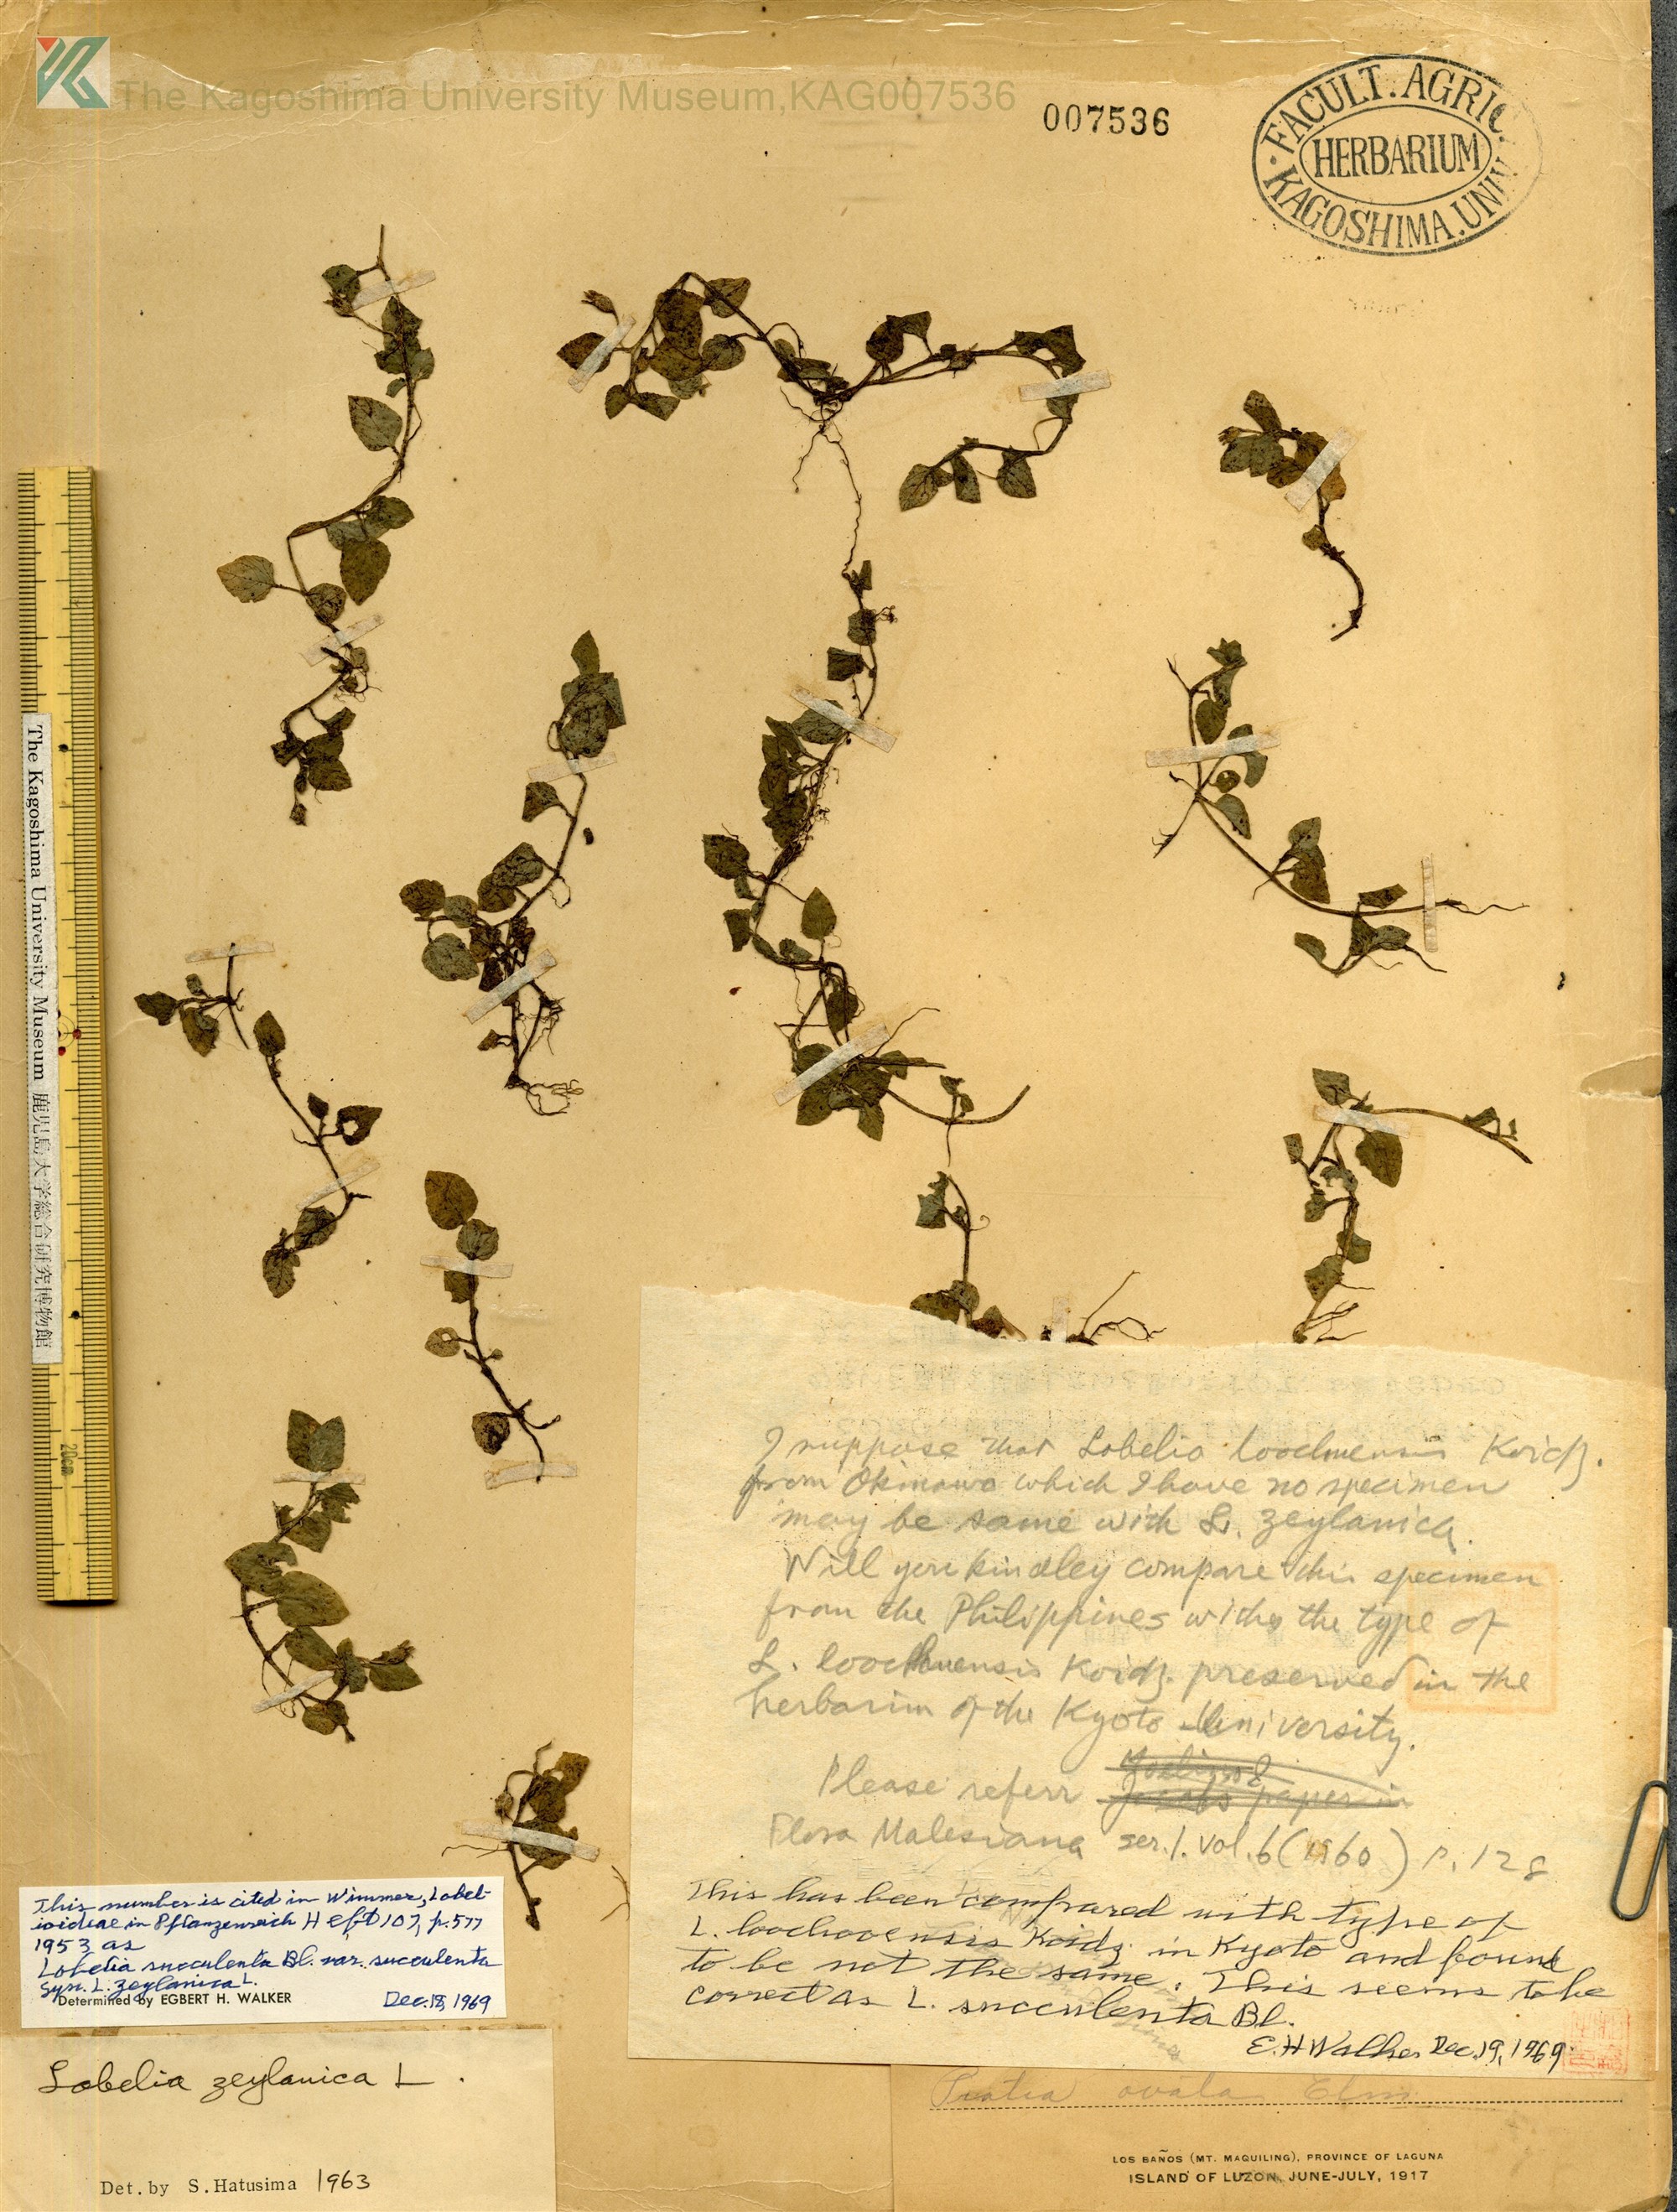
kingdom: Plantae
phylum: Tracheophyta
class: Magnoliopsida
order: Asterales
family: Campanulaceae
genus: Lobelia
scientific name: Lobelia sessilifolia
